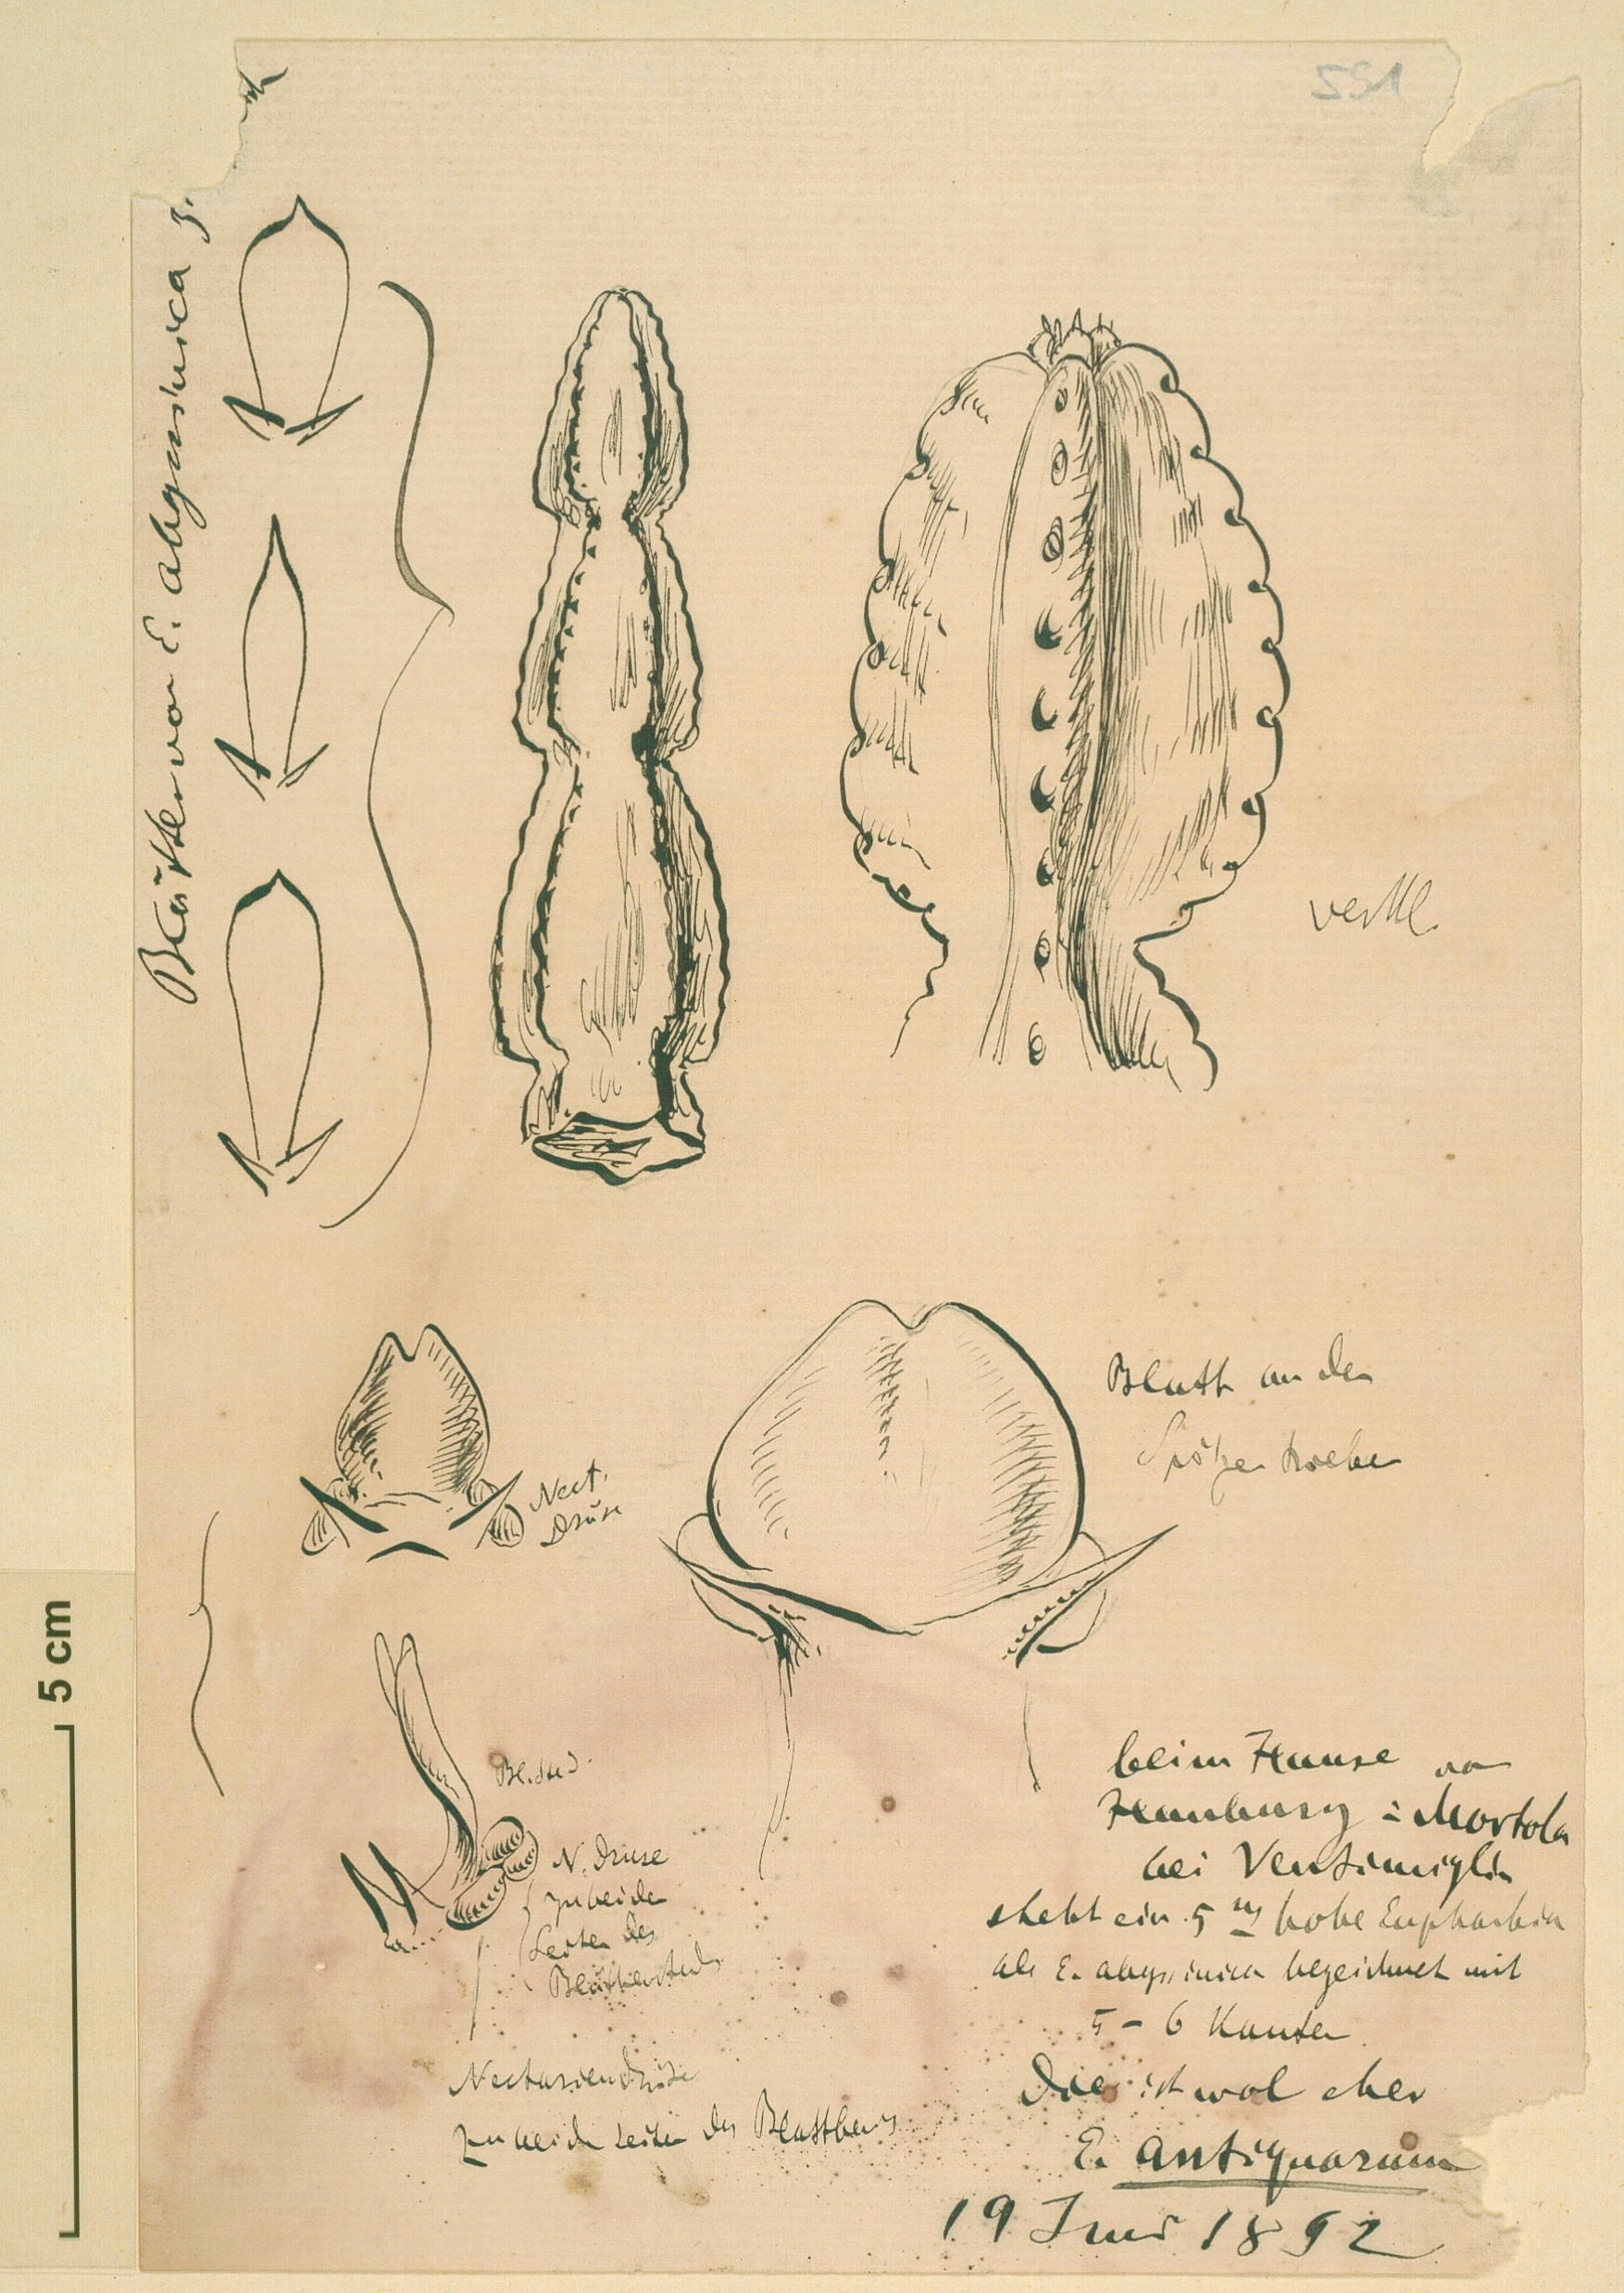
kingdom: Plantae
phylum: Tracheophyta
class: Magnoliopsida
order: Malpighiales
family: Euphorbiaceae
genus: Euphorbia
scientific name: Euphorbia antiquorum
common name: Malayan spurge tree
